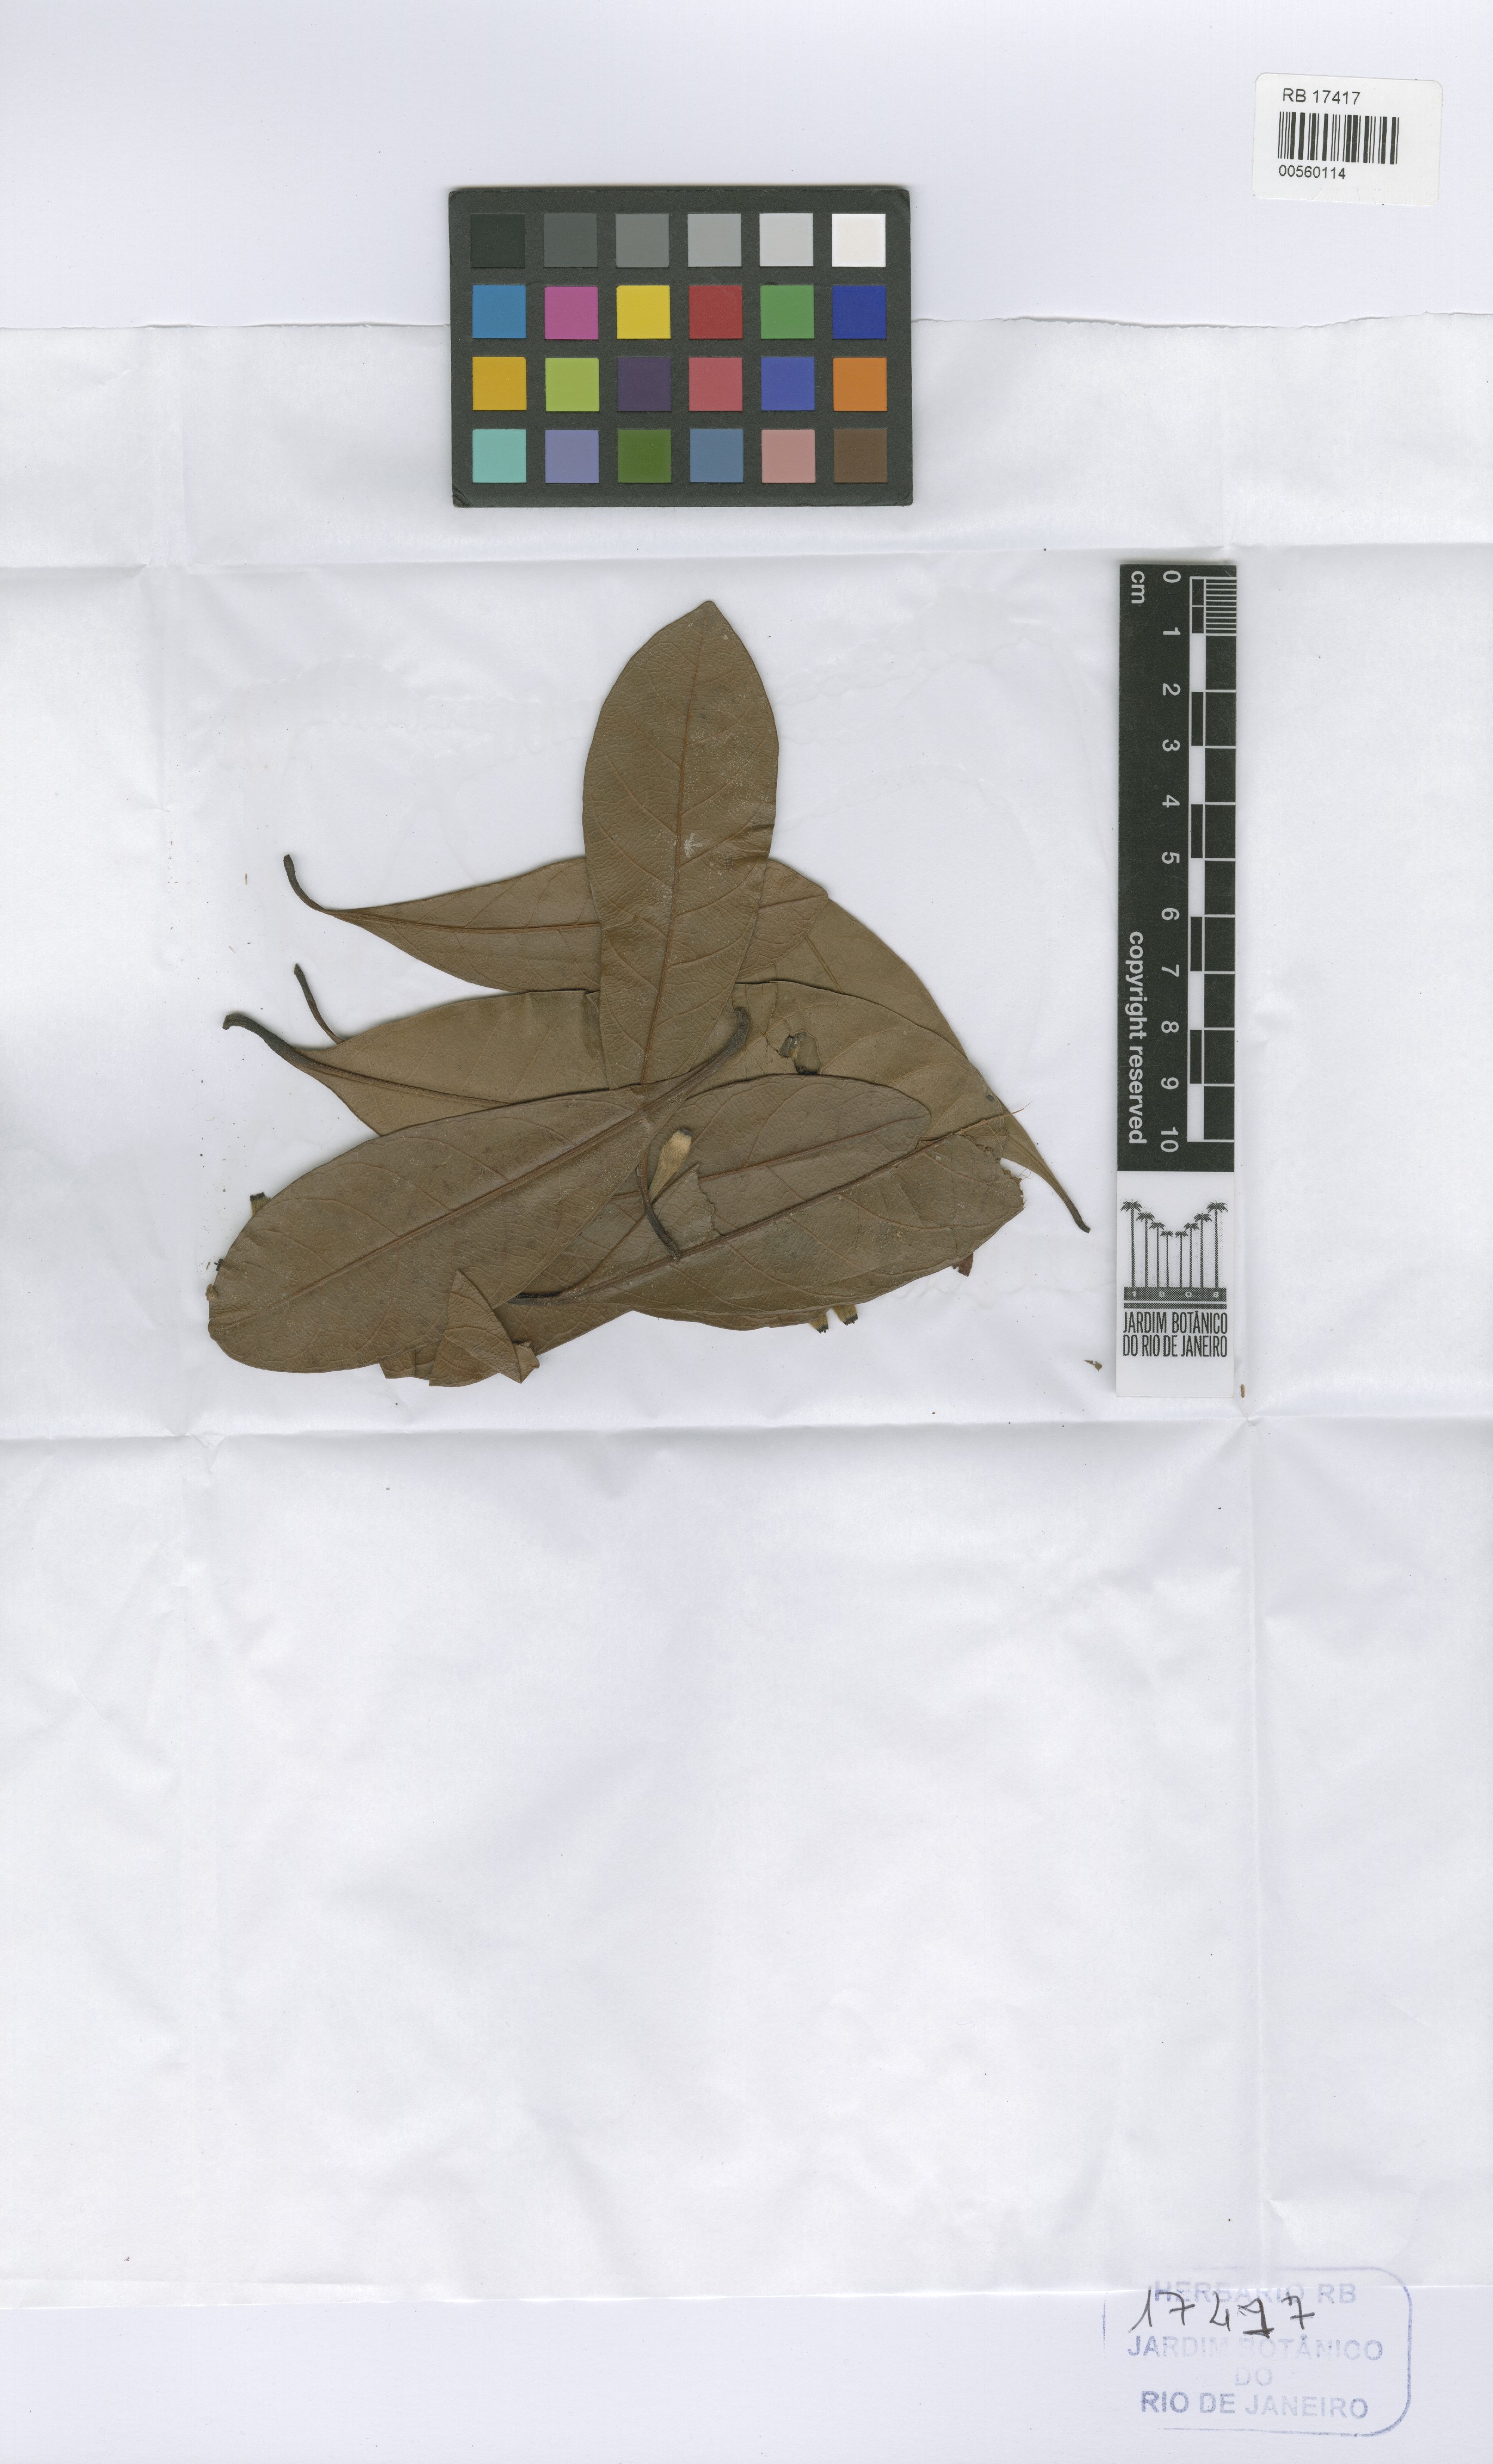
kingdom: Plantae
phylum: Tracheophyta
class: Magnoliopsida
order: Gentianales
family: Rubiaceae
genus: Duroia
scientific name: Duroia paraensis
